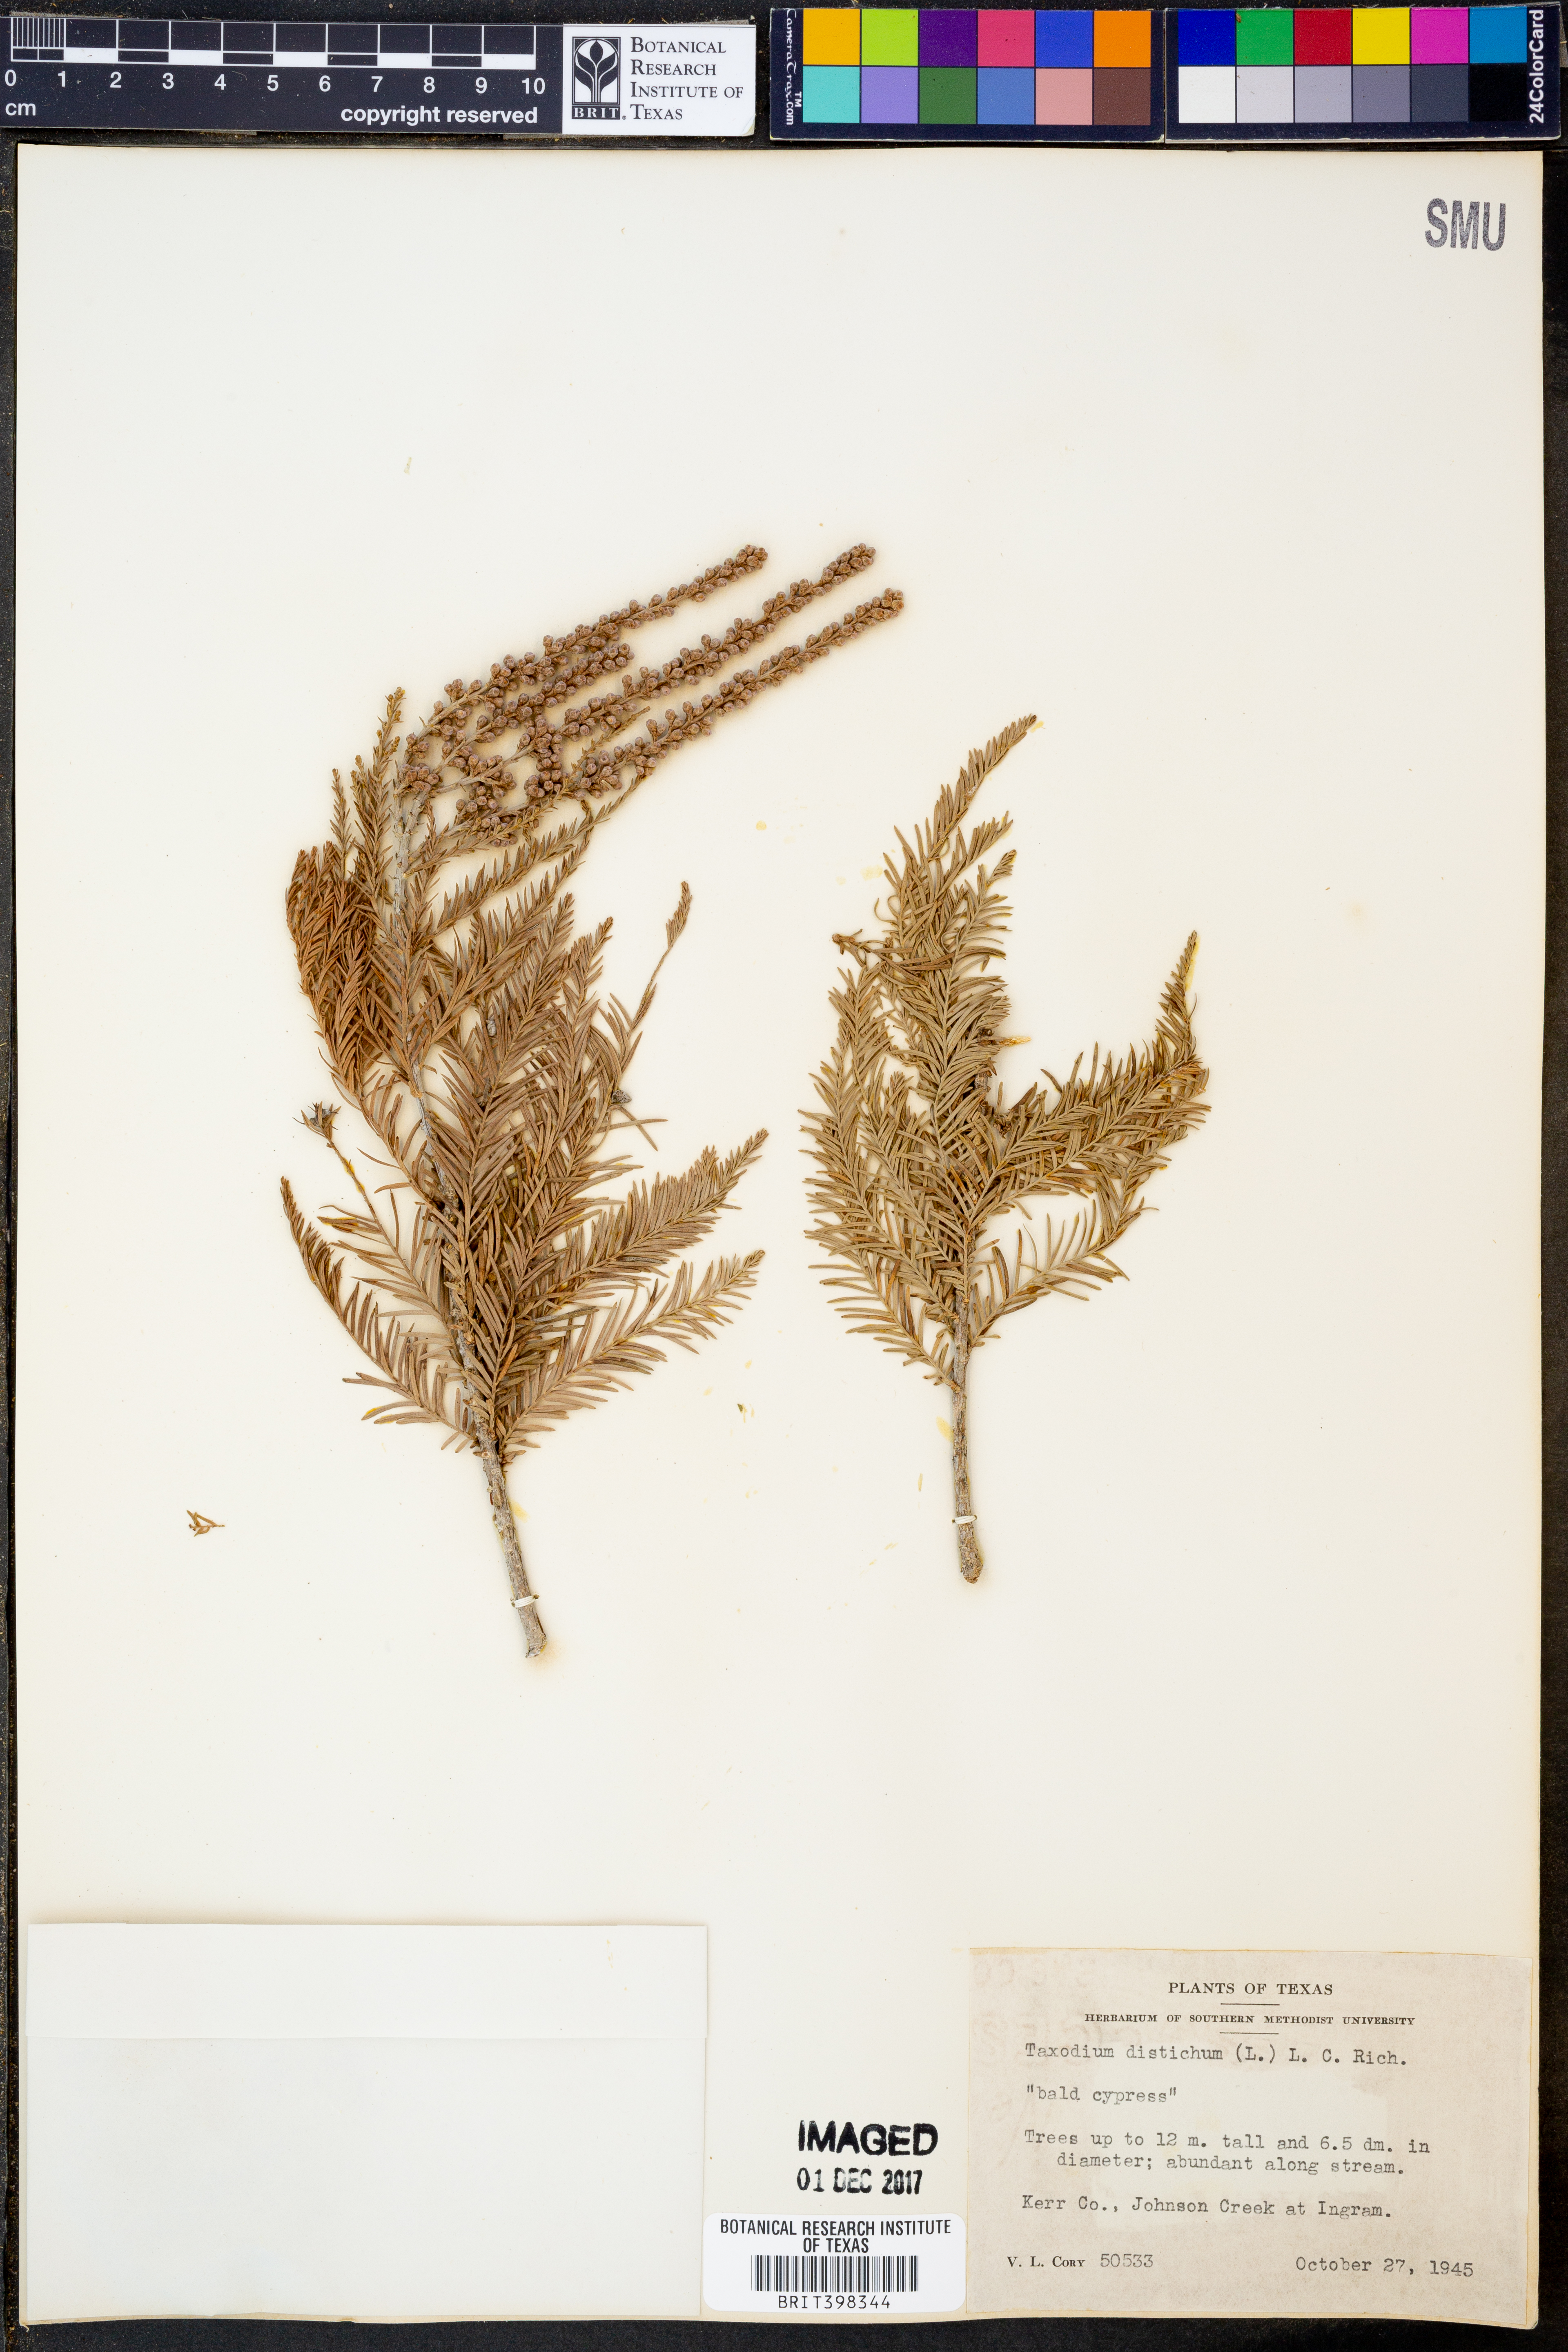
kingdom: Plantae
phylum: Tracheophyta
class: Pinopsida
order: Pinales
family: Cupressaceae
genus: Taxodium
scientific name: Taxodium distichum
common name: Bald cypress
